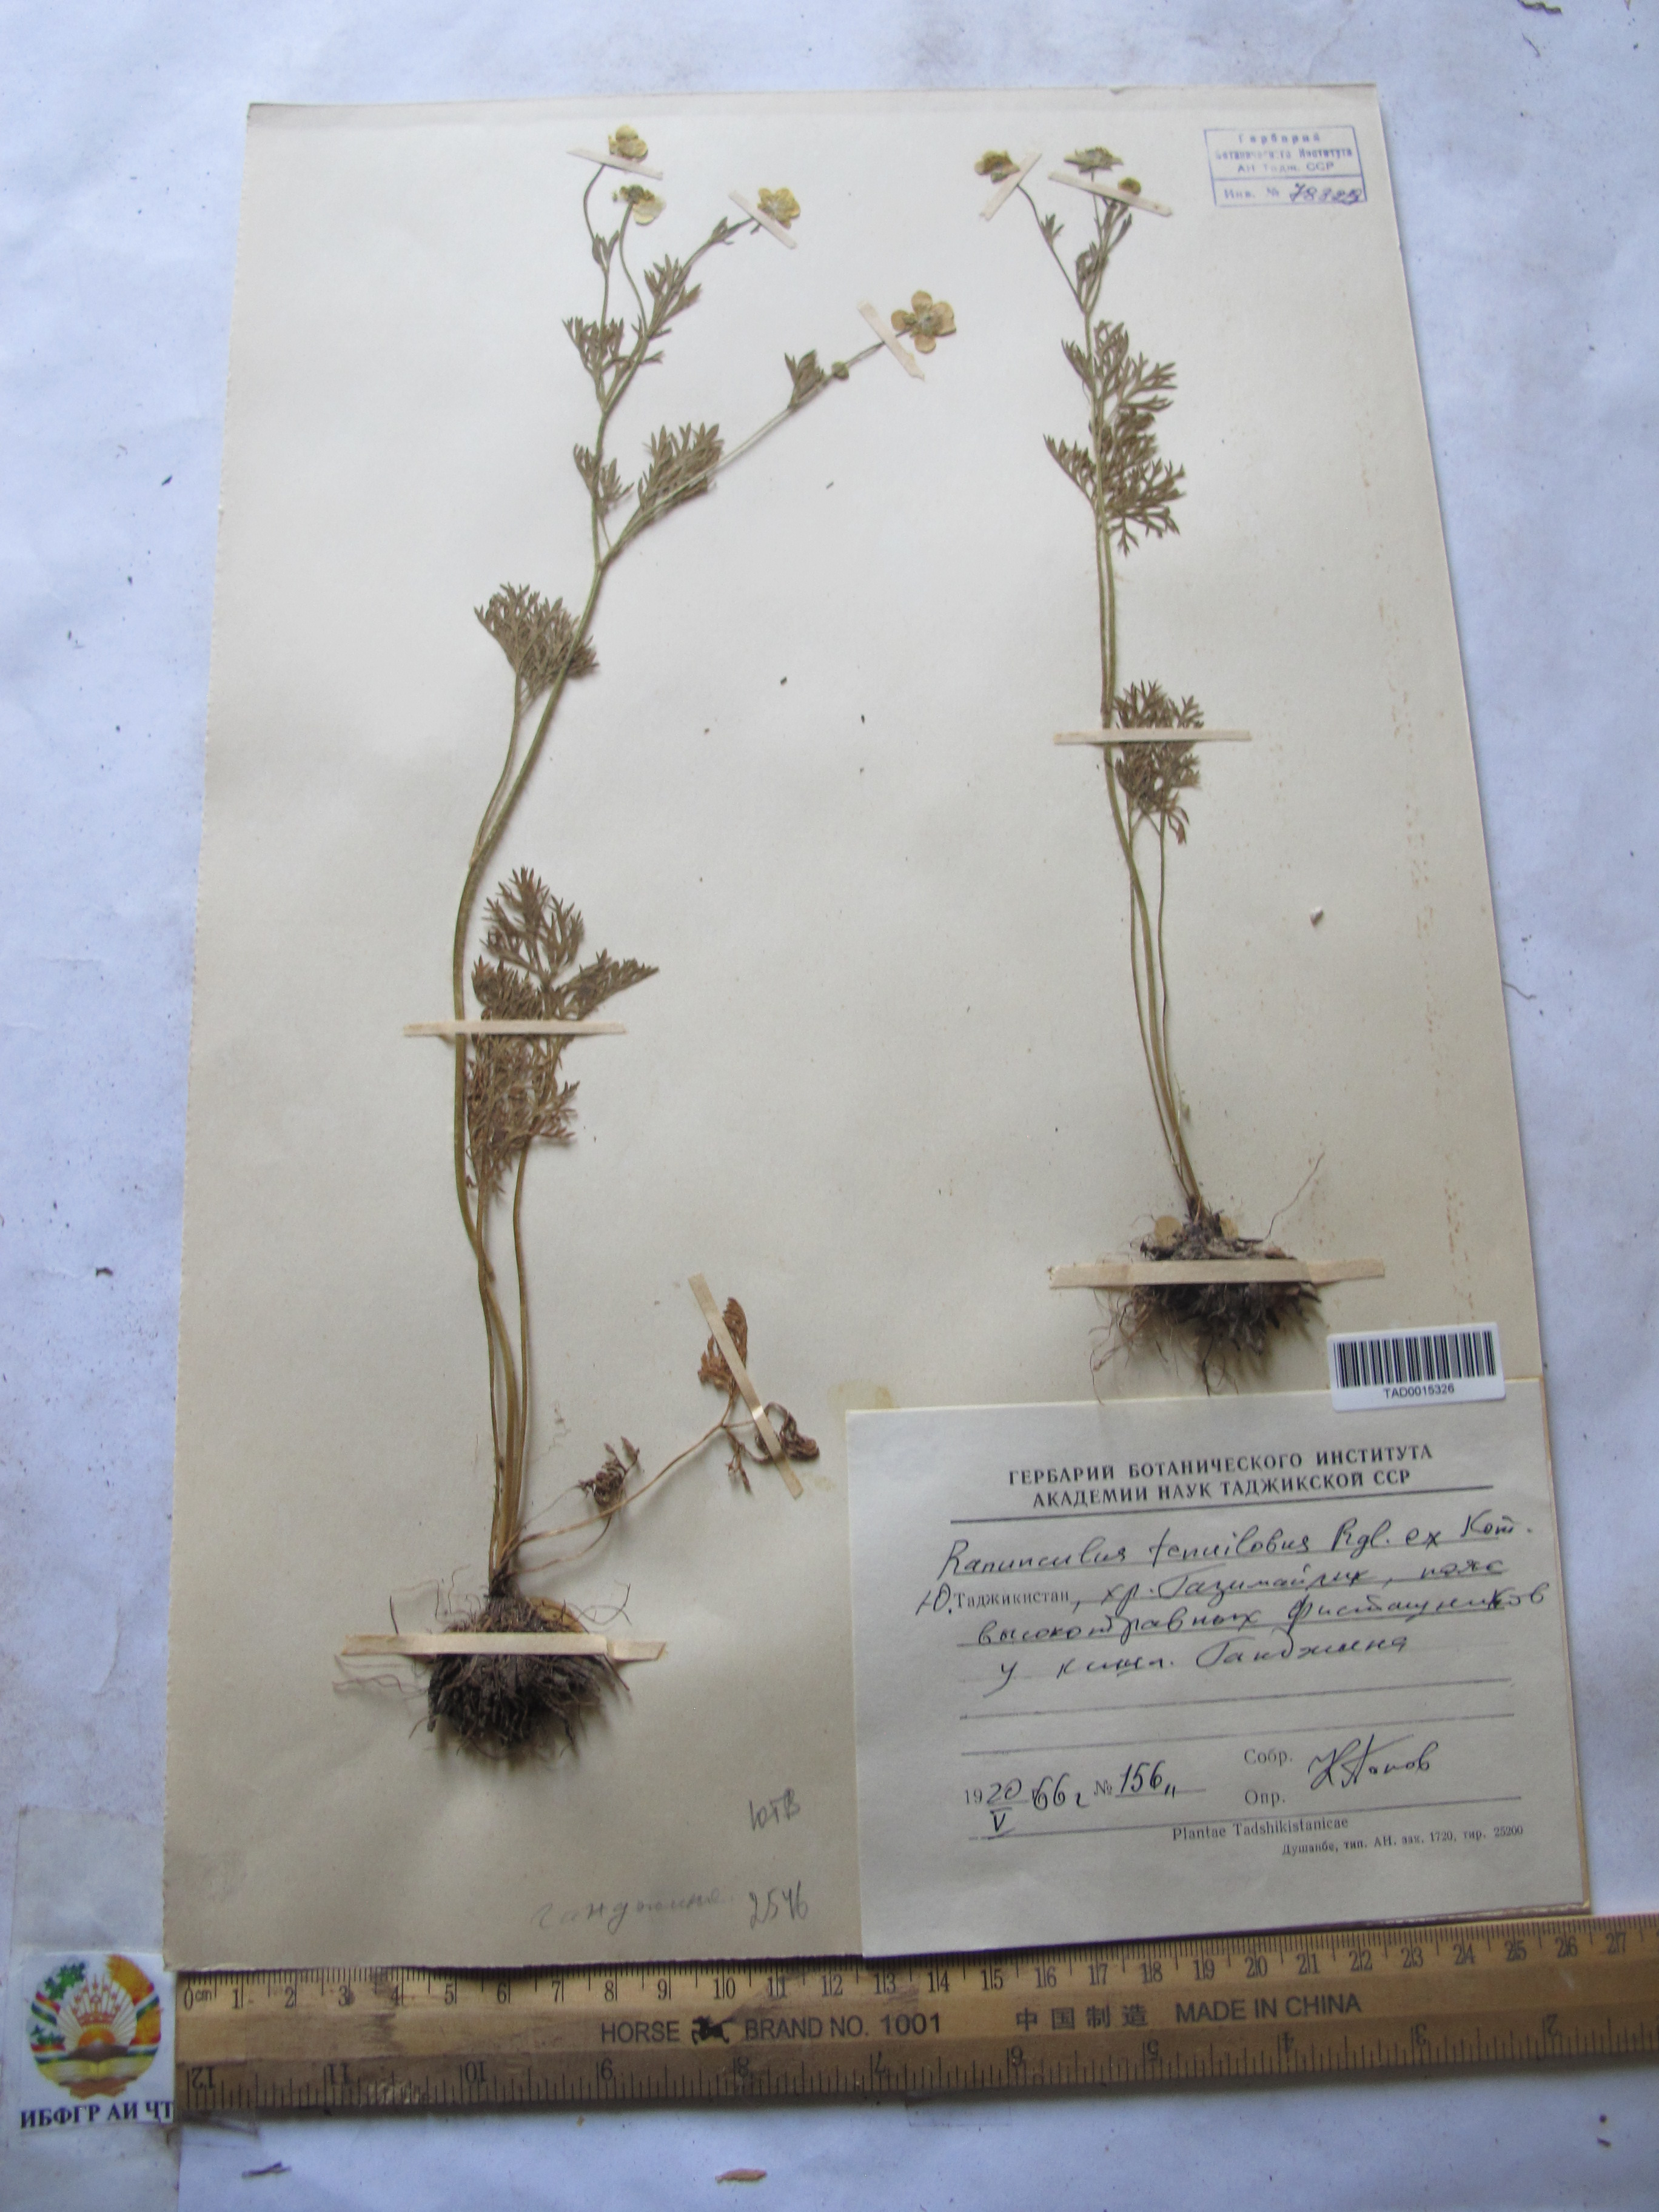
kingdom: Plantae
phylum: Tracheophyta
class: Magnoliopsida
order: Ranunculales
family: Ranunculaceae
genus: Ranunculus
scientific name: Ranunculus tenuilobus
